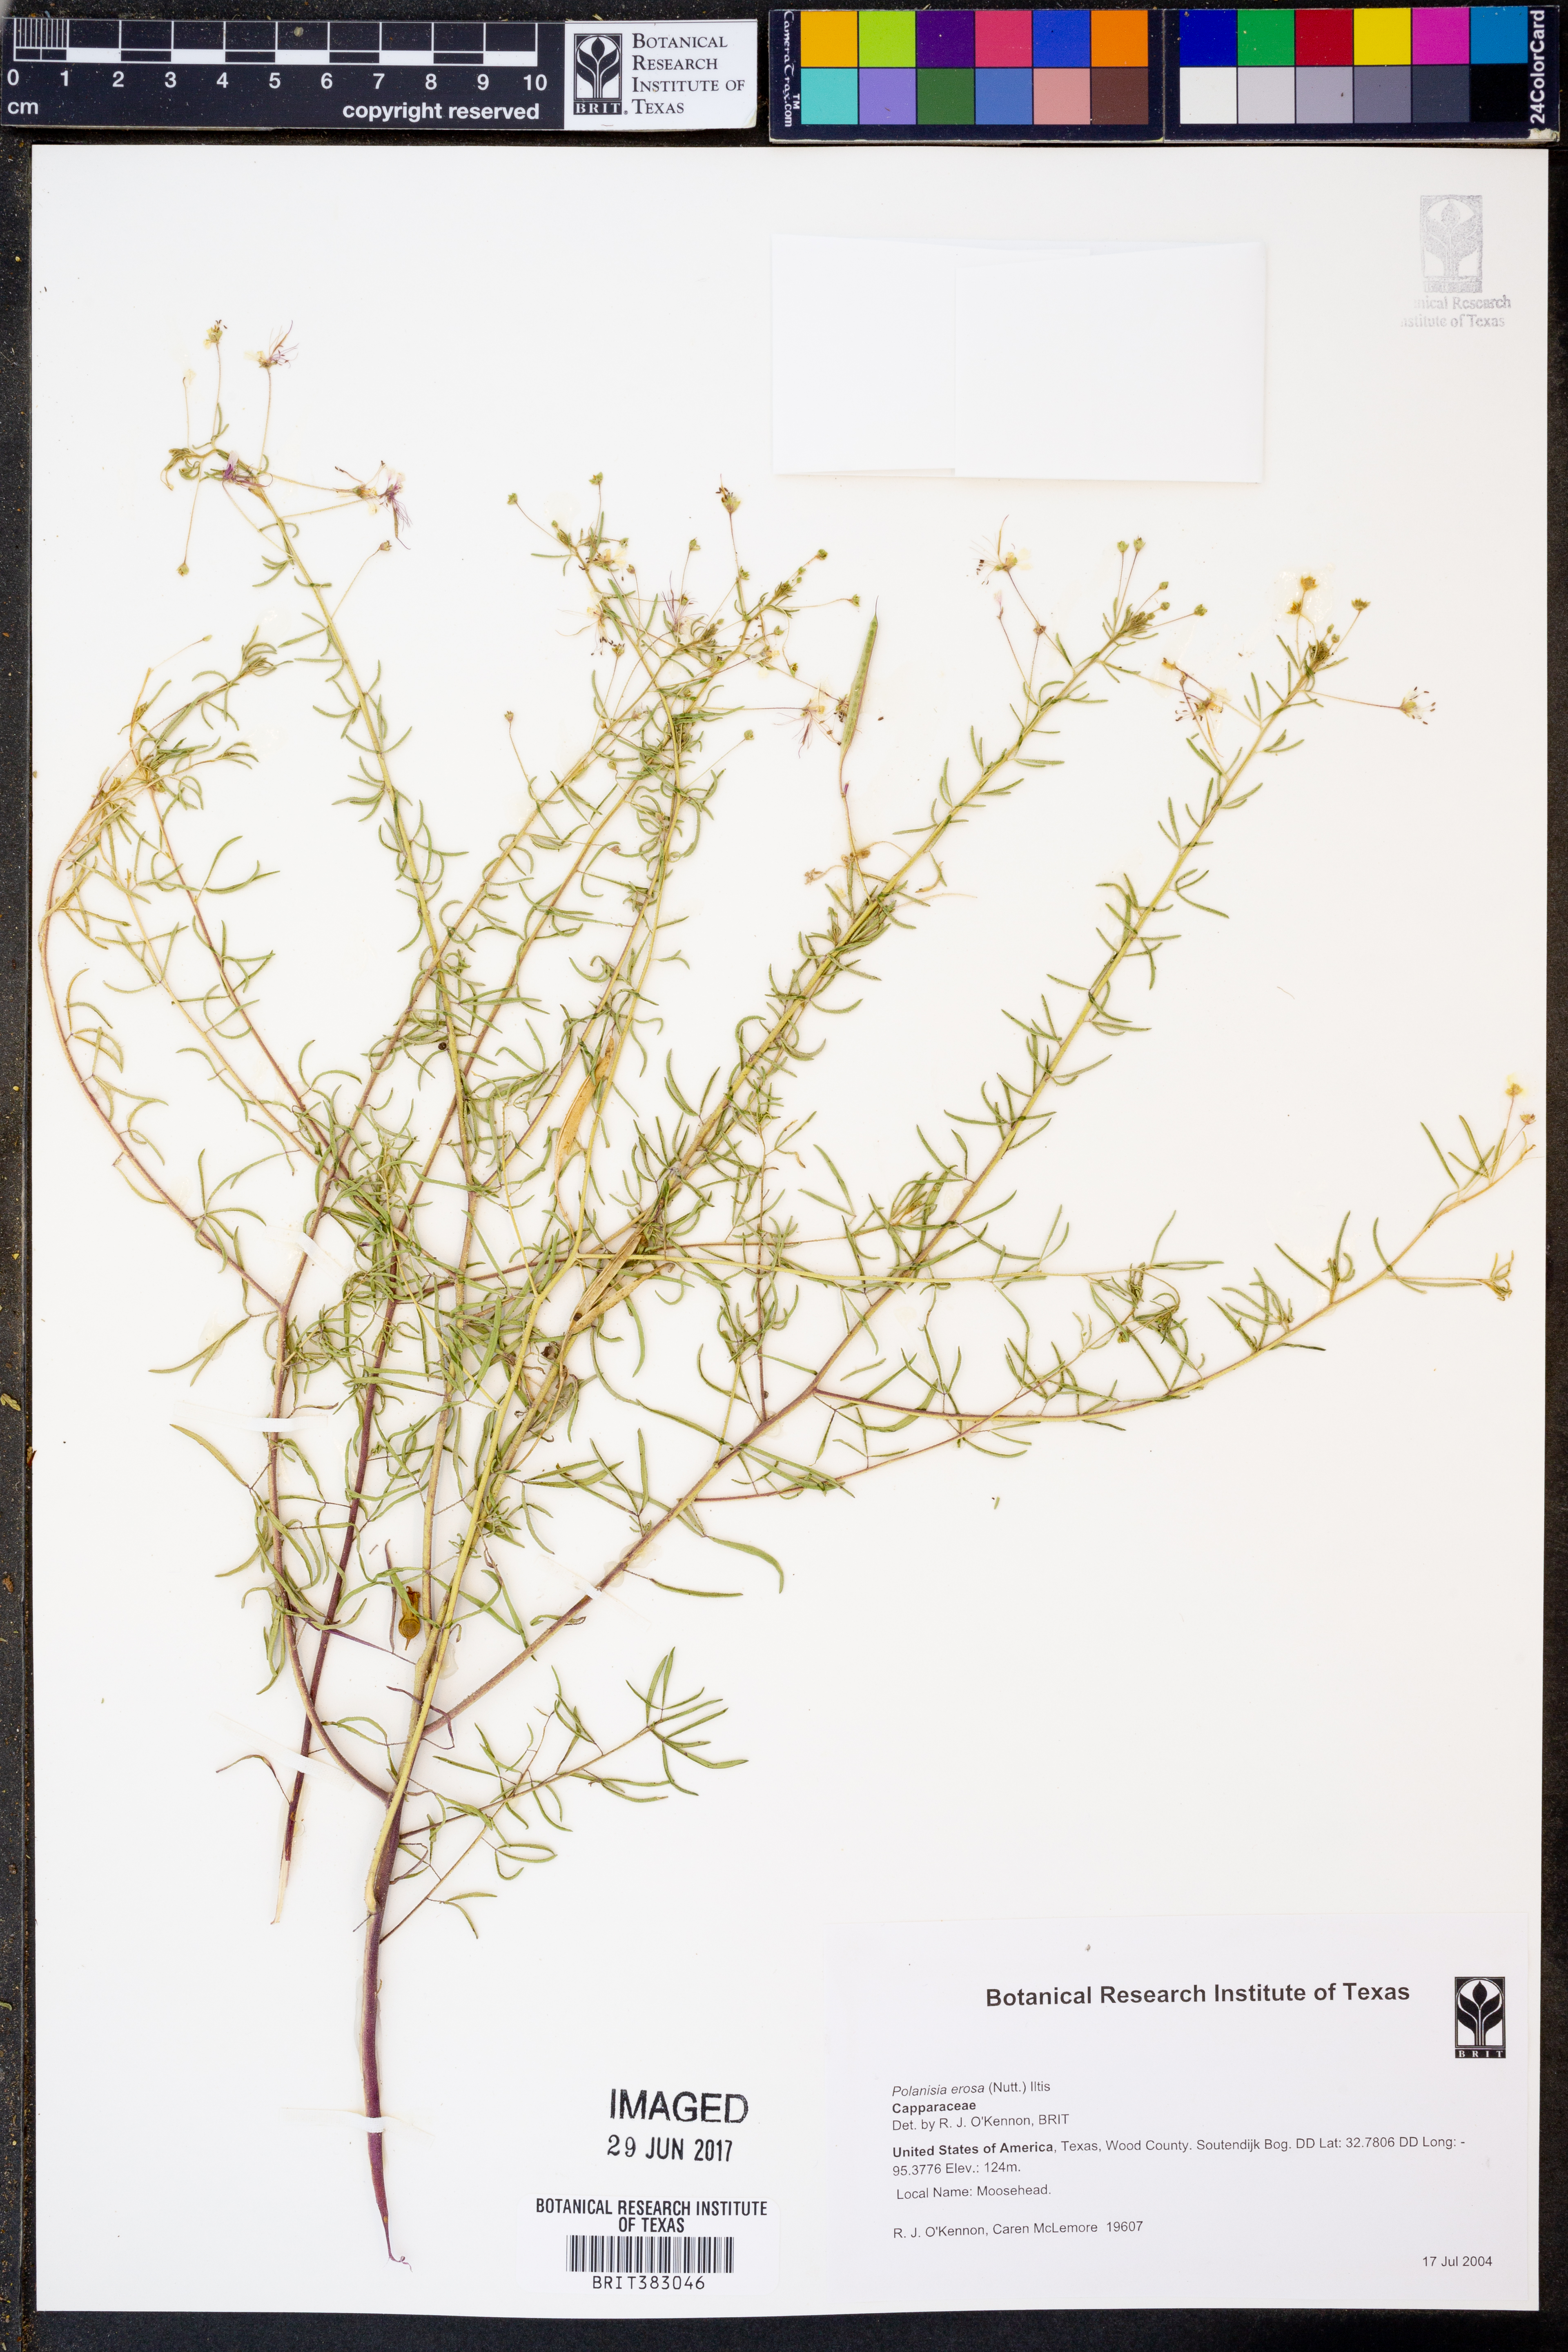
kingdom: Plantae
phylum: Tracheophyta
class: Magnoliopsida
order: Brassicales
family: Cleomaceae
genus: Polanisia
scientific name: Polanisia erosa
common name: Large clammyweed
